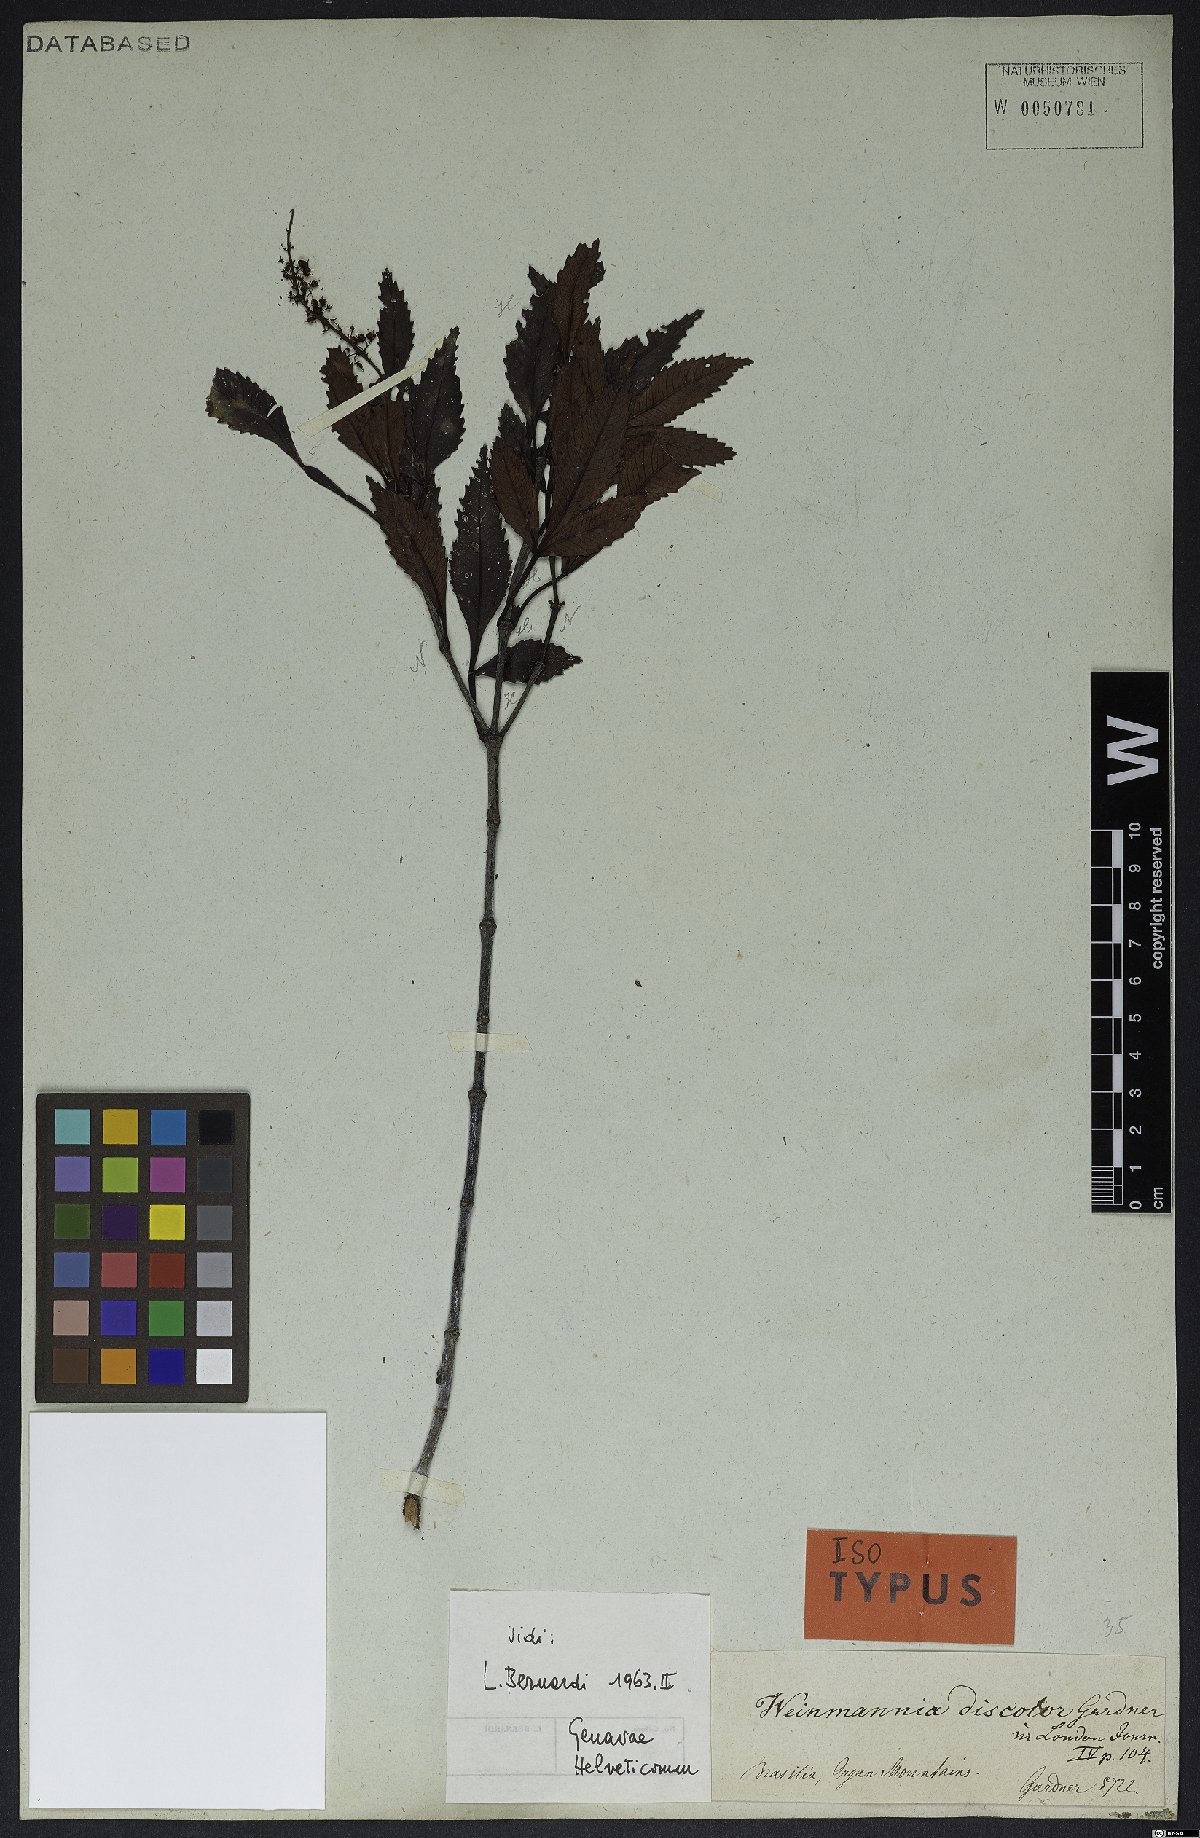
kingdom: Plantae
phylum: Tracheophyta
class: Magnoliopsida
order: Oxalidales
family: Cunoniaceae
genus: Weinmannia
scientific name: Weinmannia discolor
